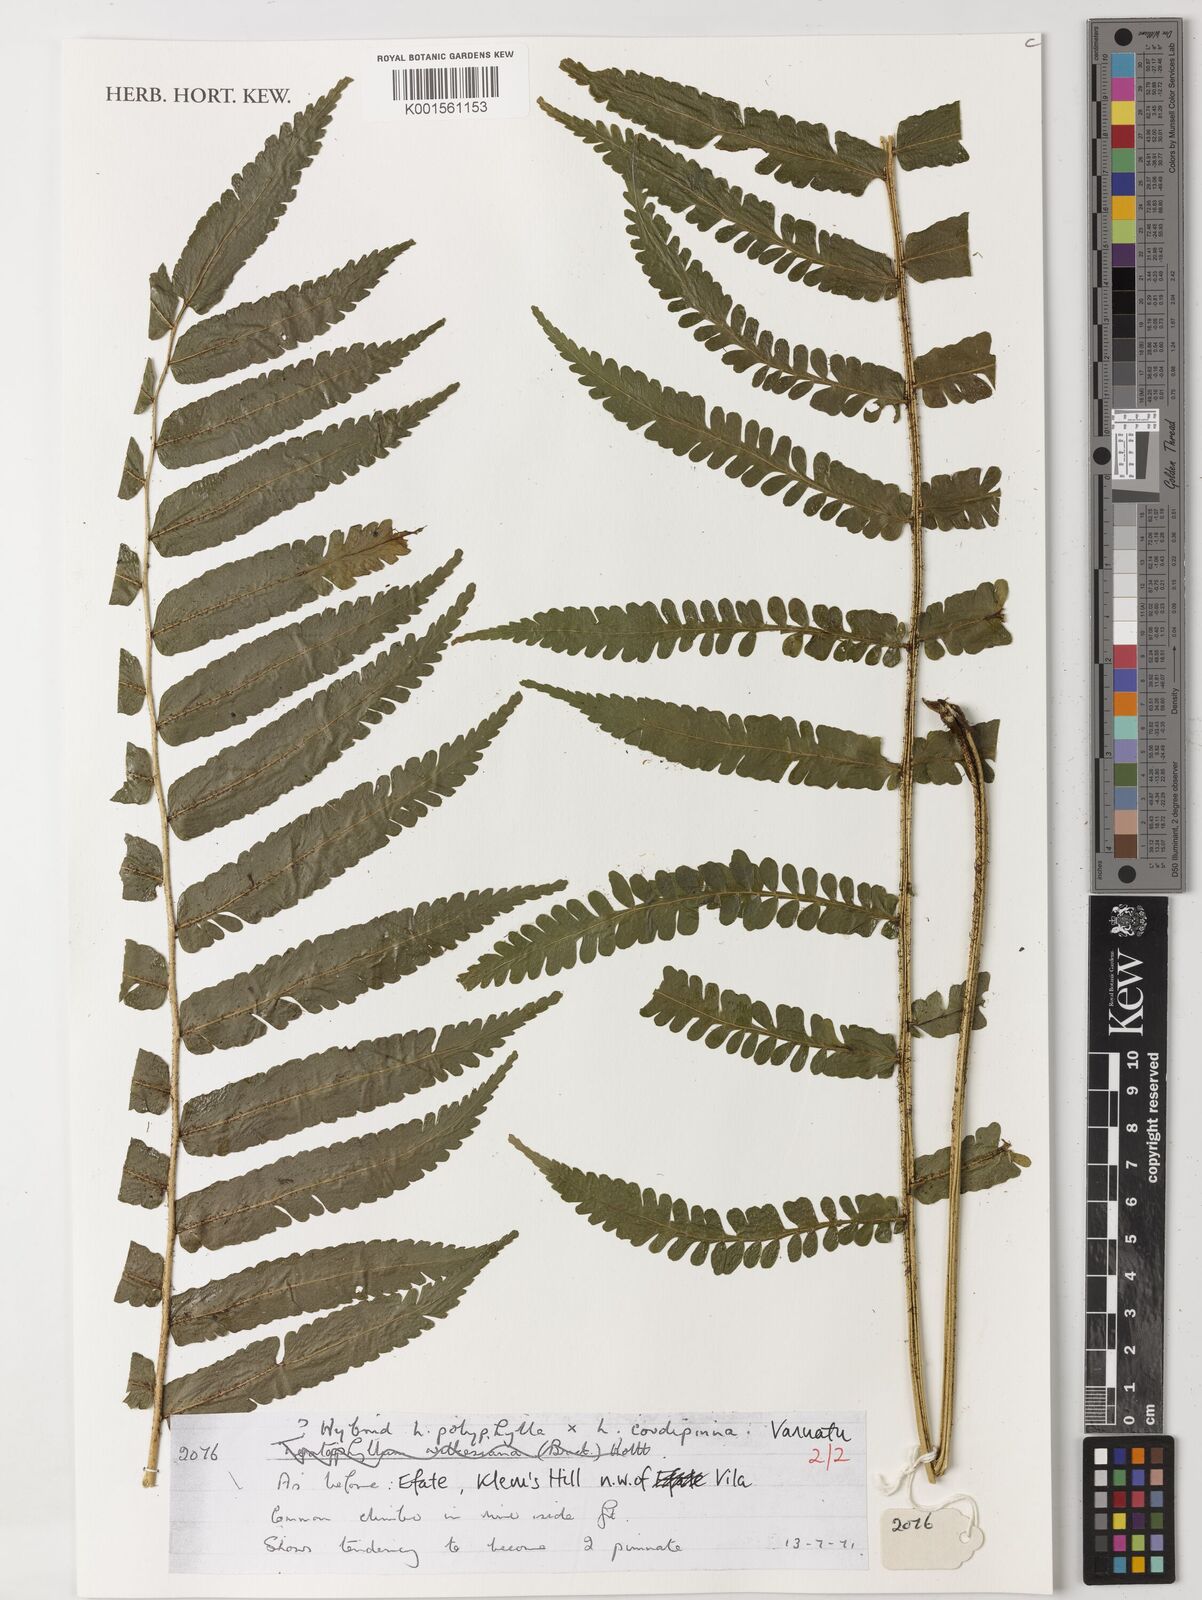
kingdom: Plantae
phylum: Tracheophyta
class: Polypodiopsida
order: Polypodiales
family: Dryopteridaceae
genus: Lomagramma
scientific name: Lomagramma polyphylla
